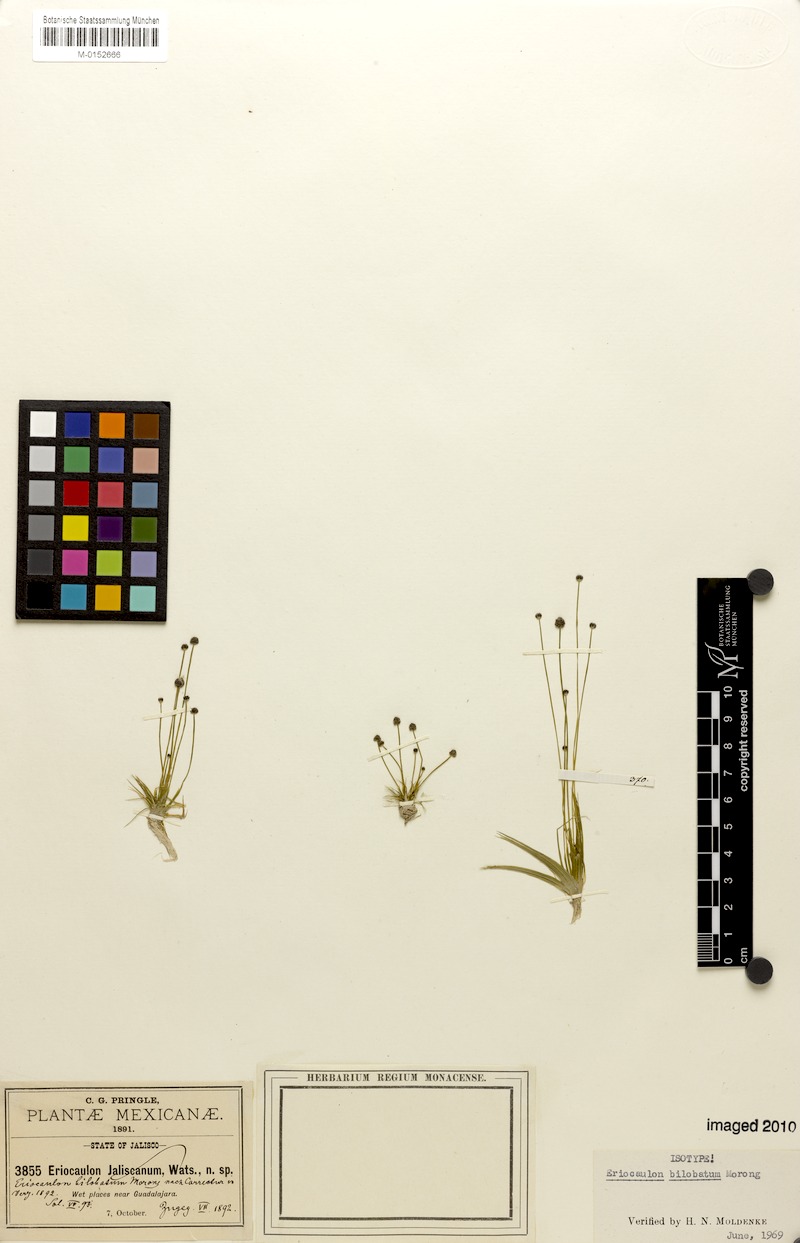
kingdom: Plantae
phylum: Tracheophyta
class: Liliopsida
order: Poales
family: Eriocaulaceae
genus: Eriocaulon
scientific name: Eriocaulon bilobatum
